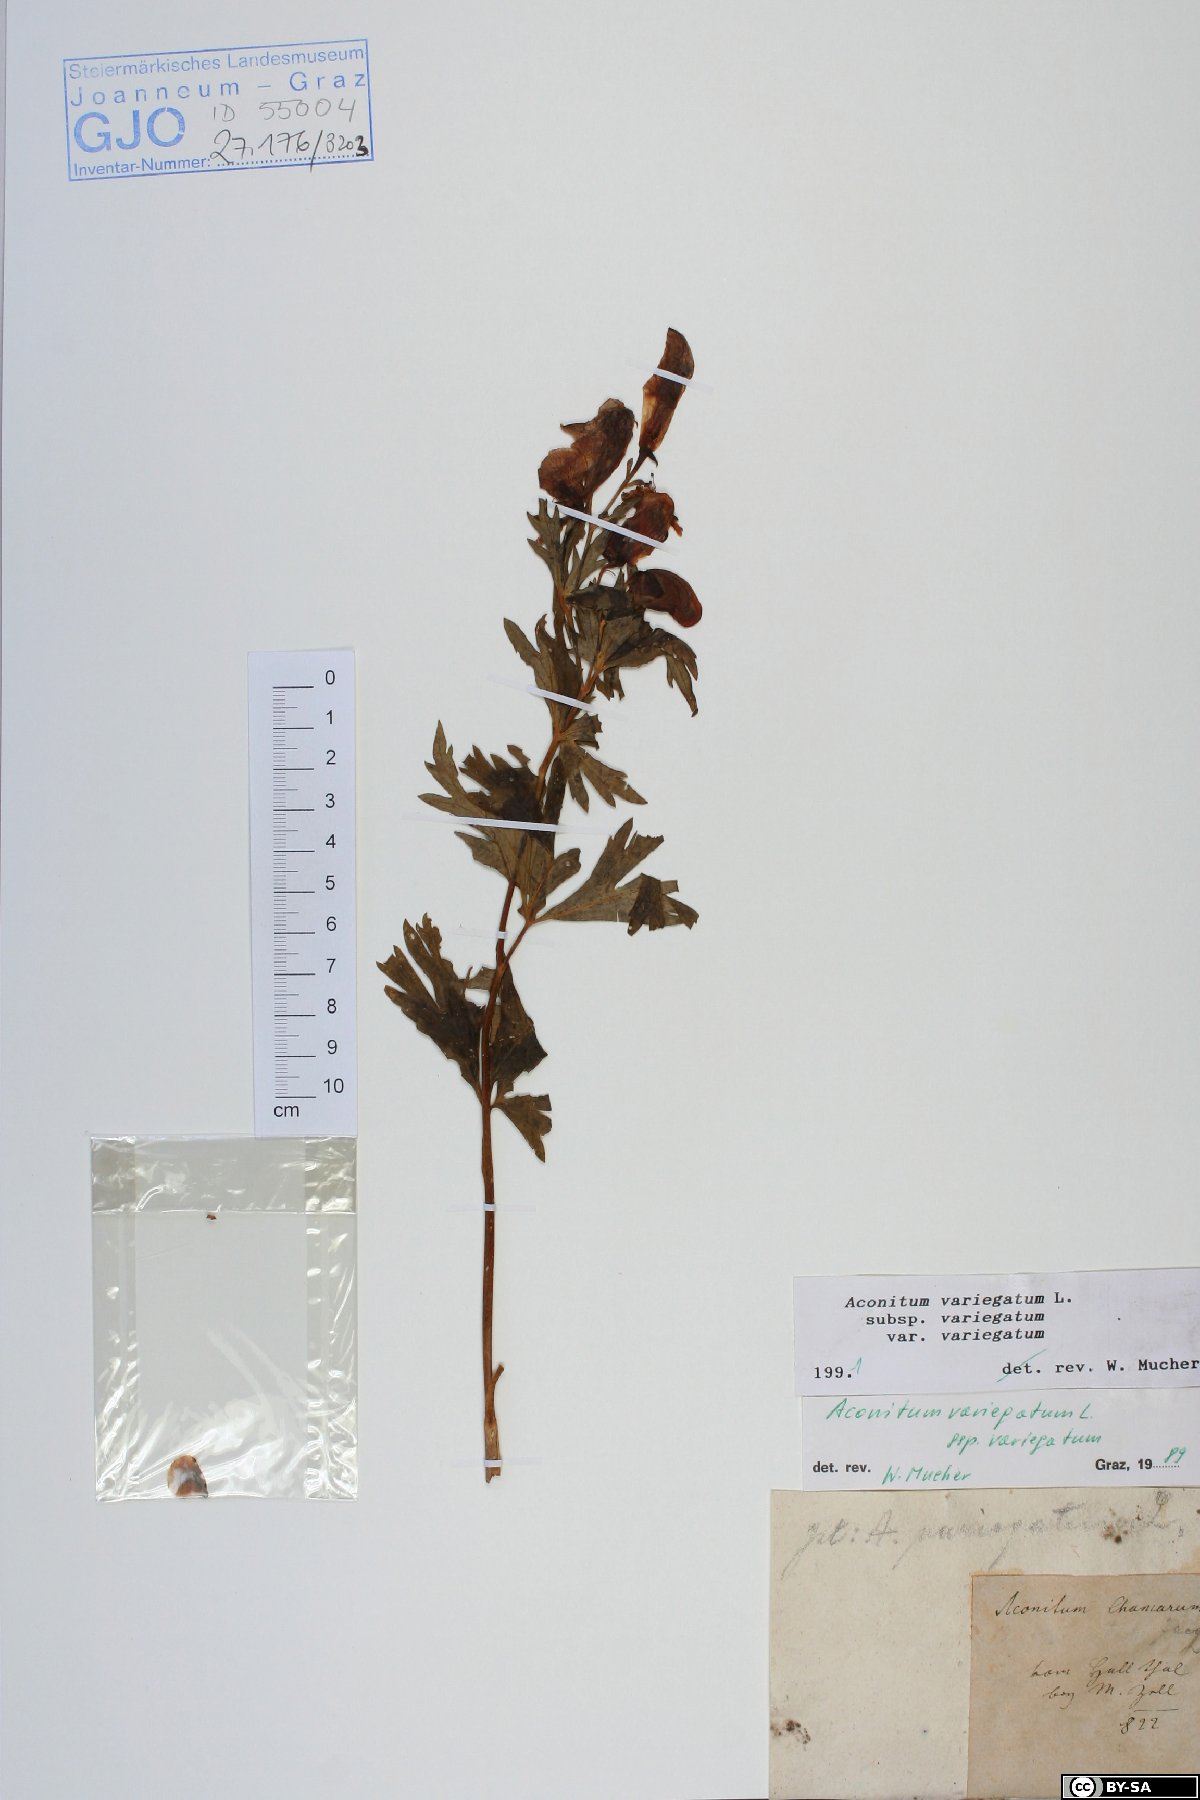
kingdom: Plantae
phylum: Tracheophyta
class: Magnoliopsida
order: Ranunculales
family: Ranunculaceae
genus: Aconitum
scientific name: Aconitum variegatum
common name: Manchurian monkshood
